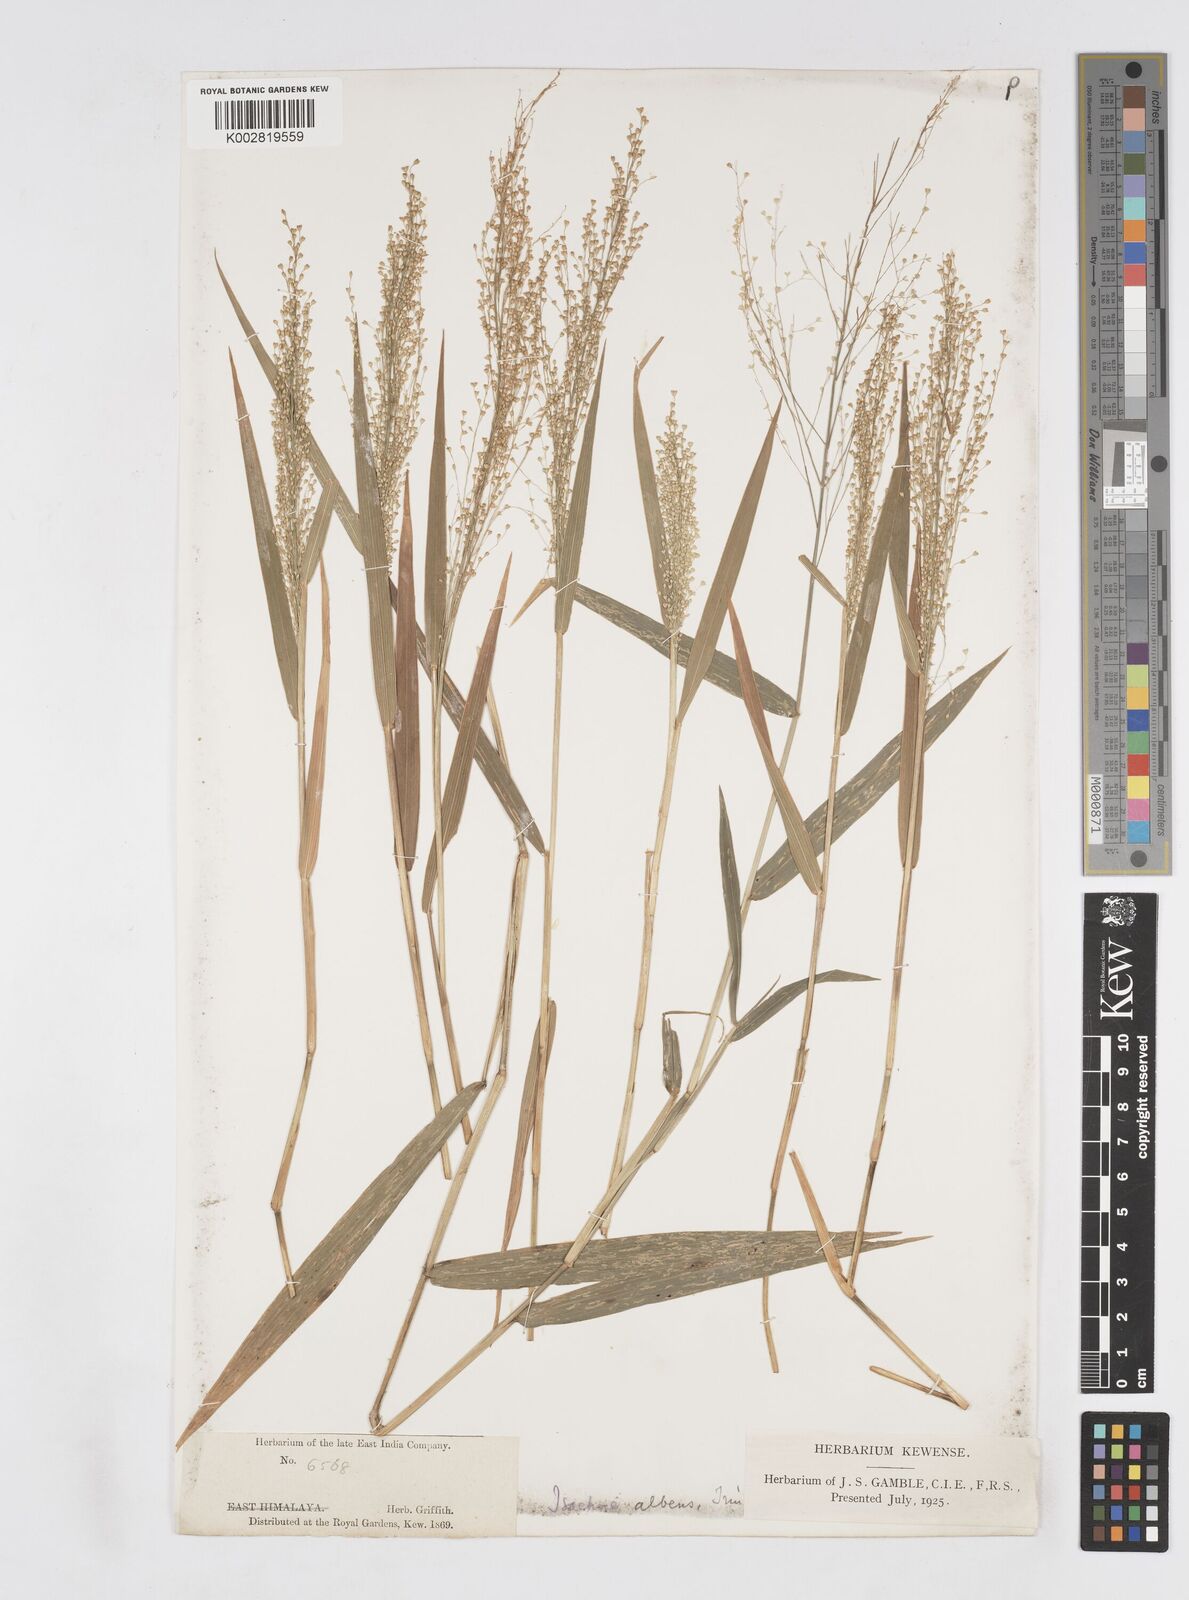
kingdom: Plantae
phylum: Tracheophyta
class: Liliopsida
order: Poales
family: Poaceae
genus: Isachne
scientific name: Isachne albens
